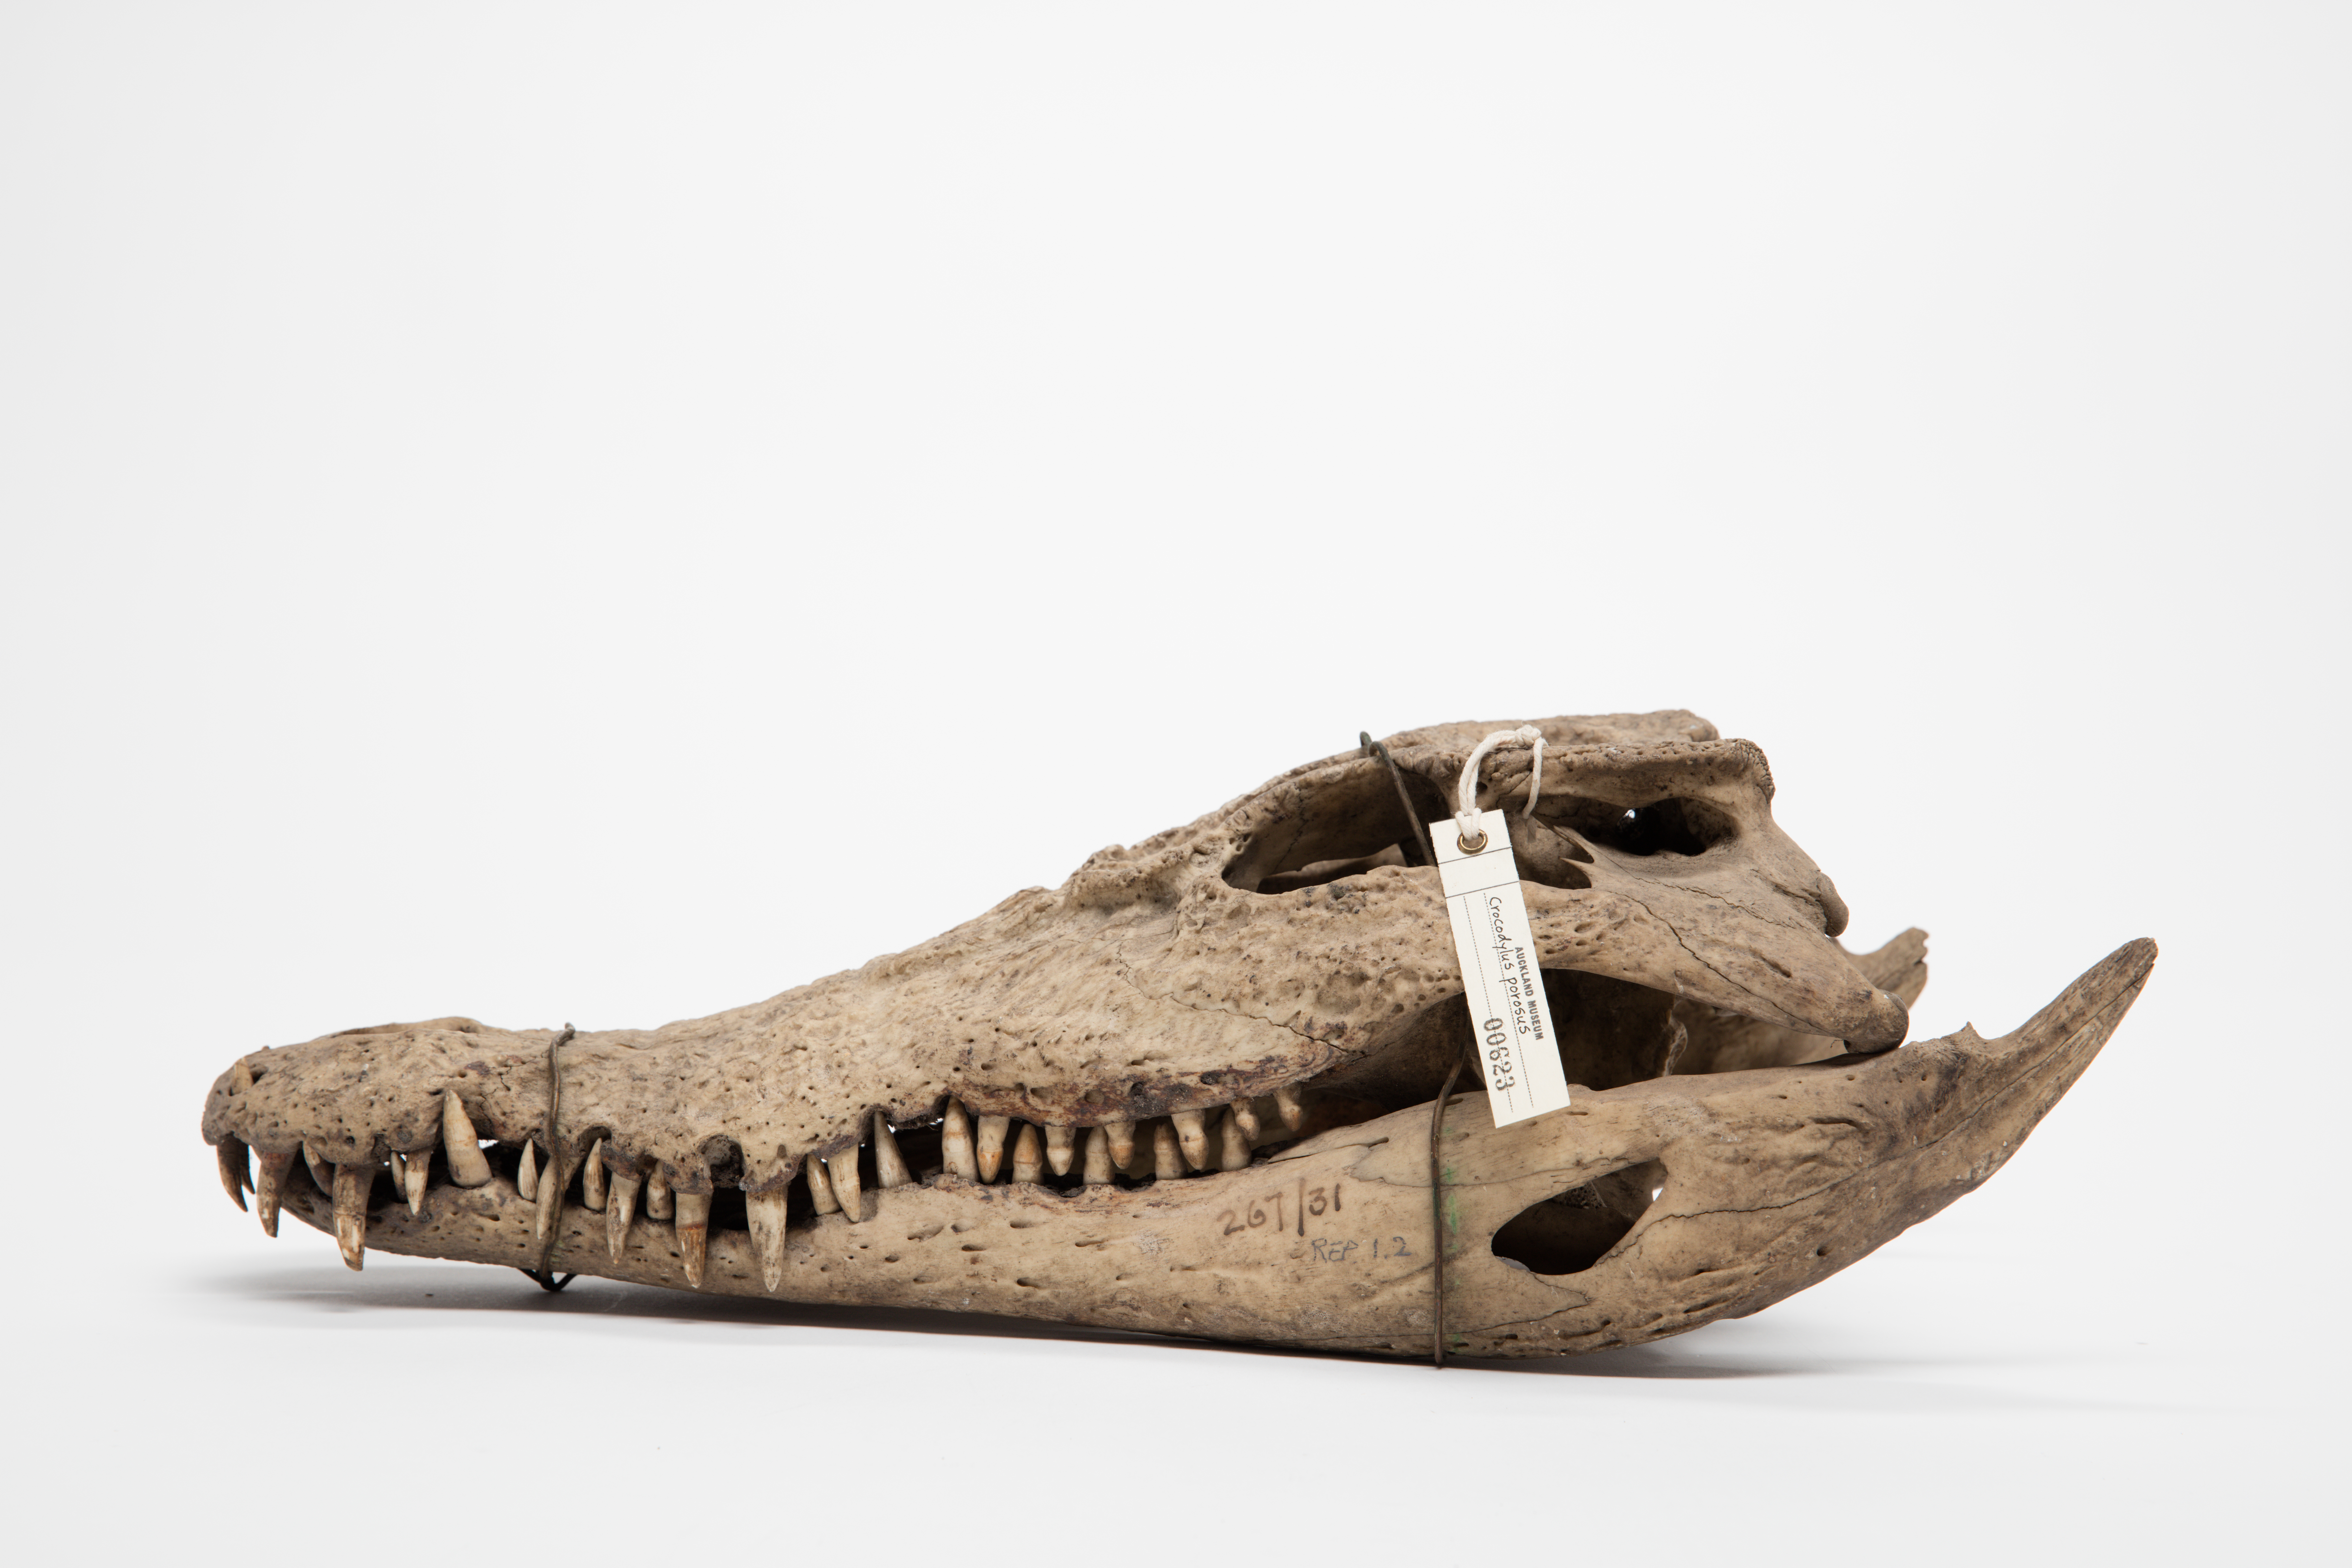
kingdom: Animalia
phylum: Chordata
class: Crocodylia
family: Crocodylidae
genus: Crocodylus
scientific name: Crocodylus porosus
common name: Saltwater crocodile
